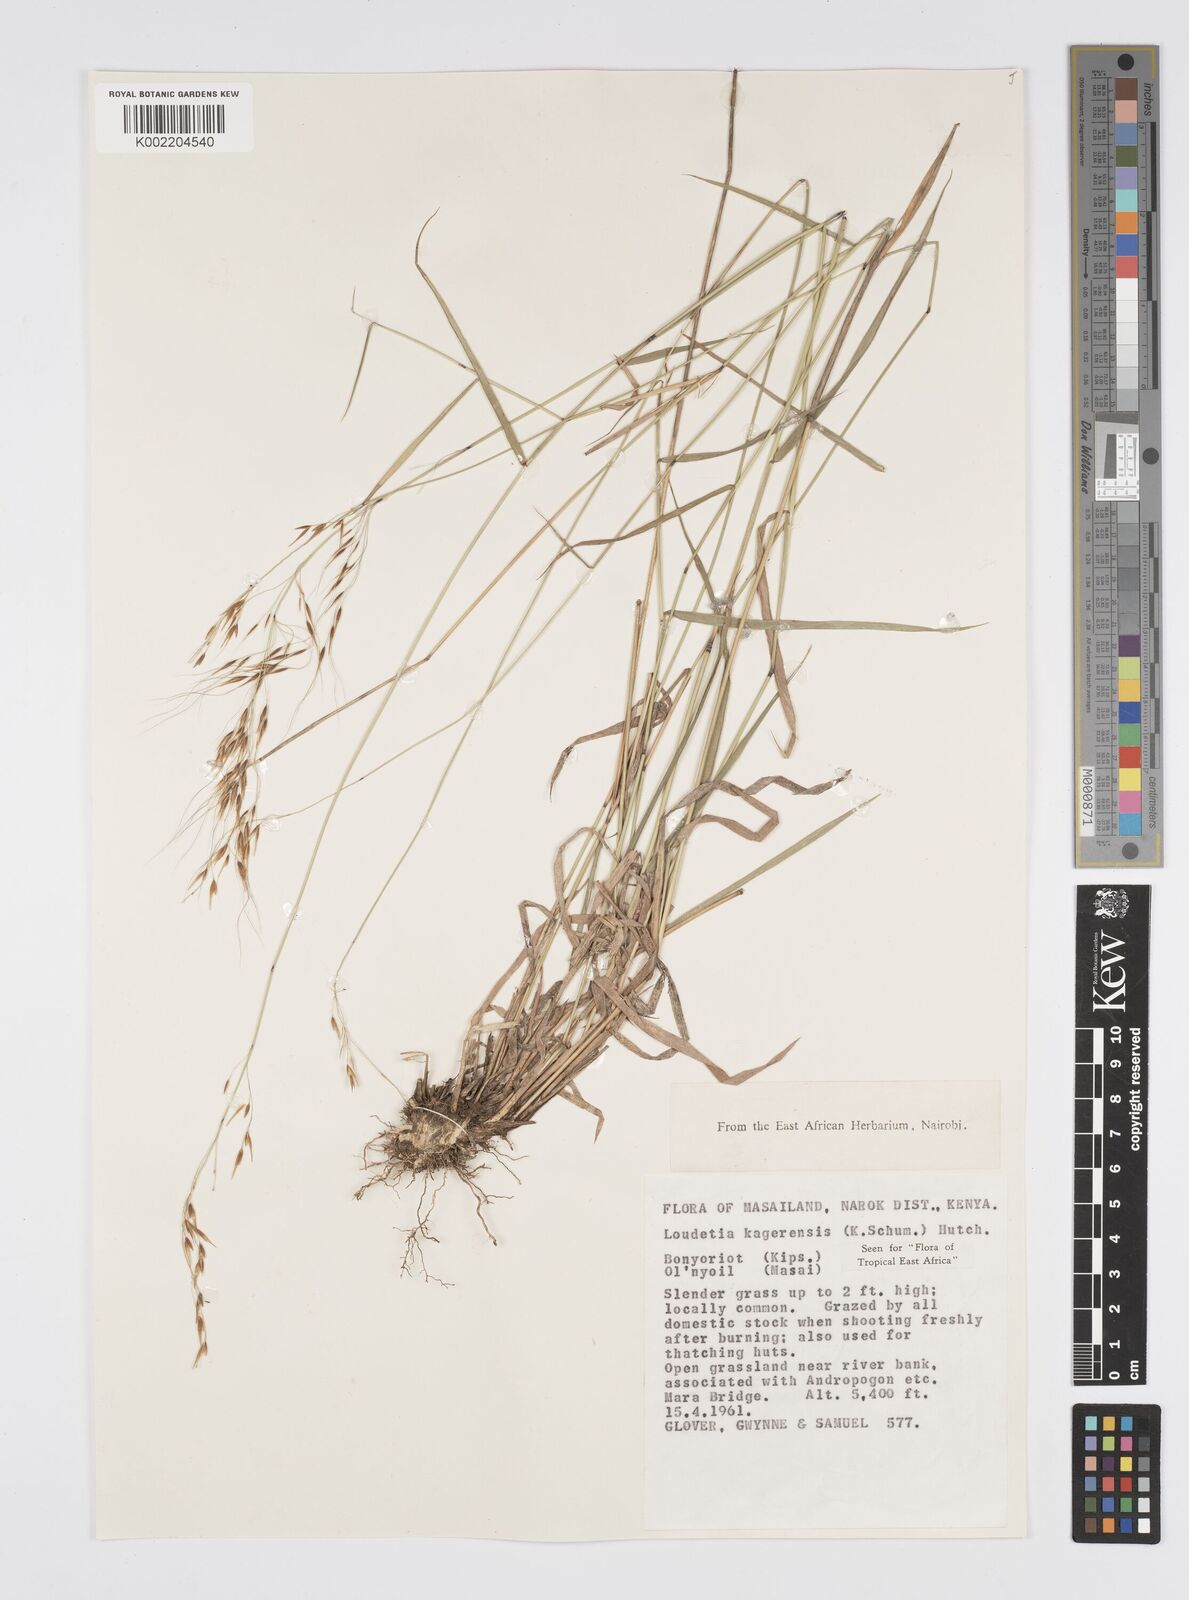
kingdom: Plantae
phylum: Tracheophyta
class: Liliopsida
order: Poales
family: Poaceae
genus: Loudetia
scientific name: Loudetia kagerensis
